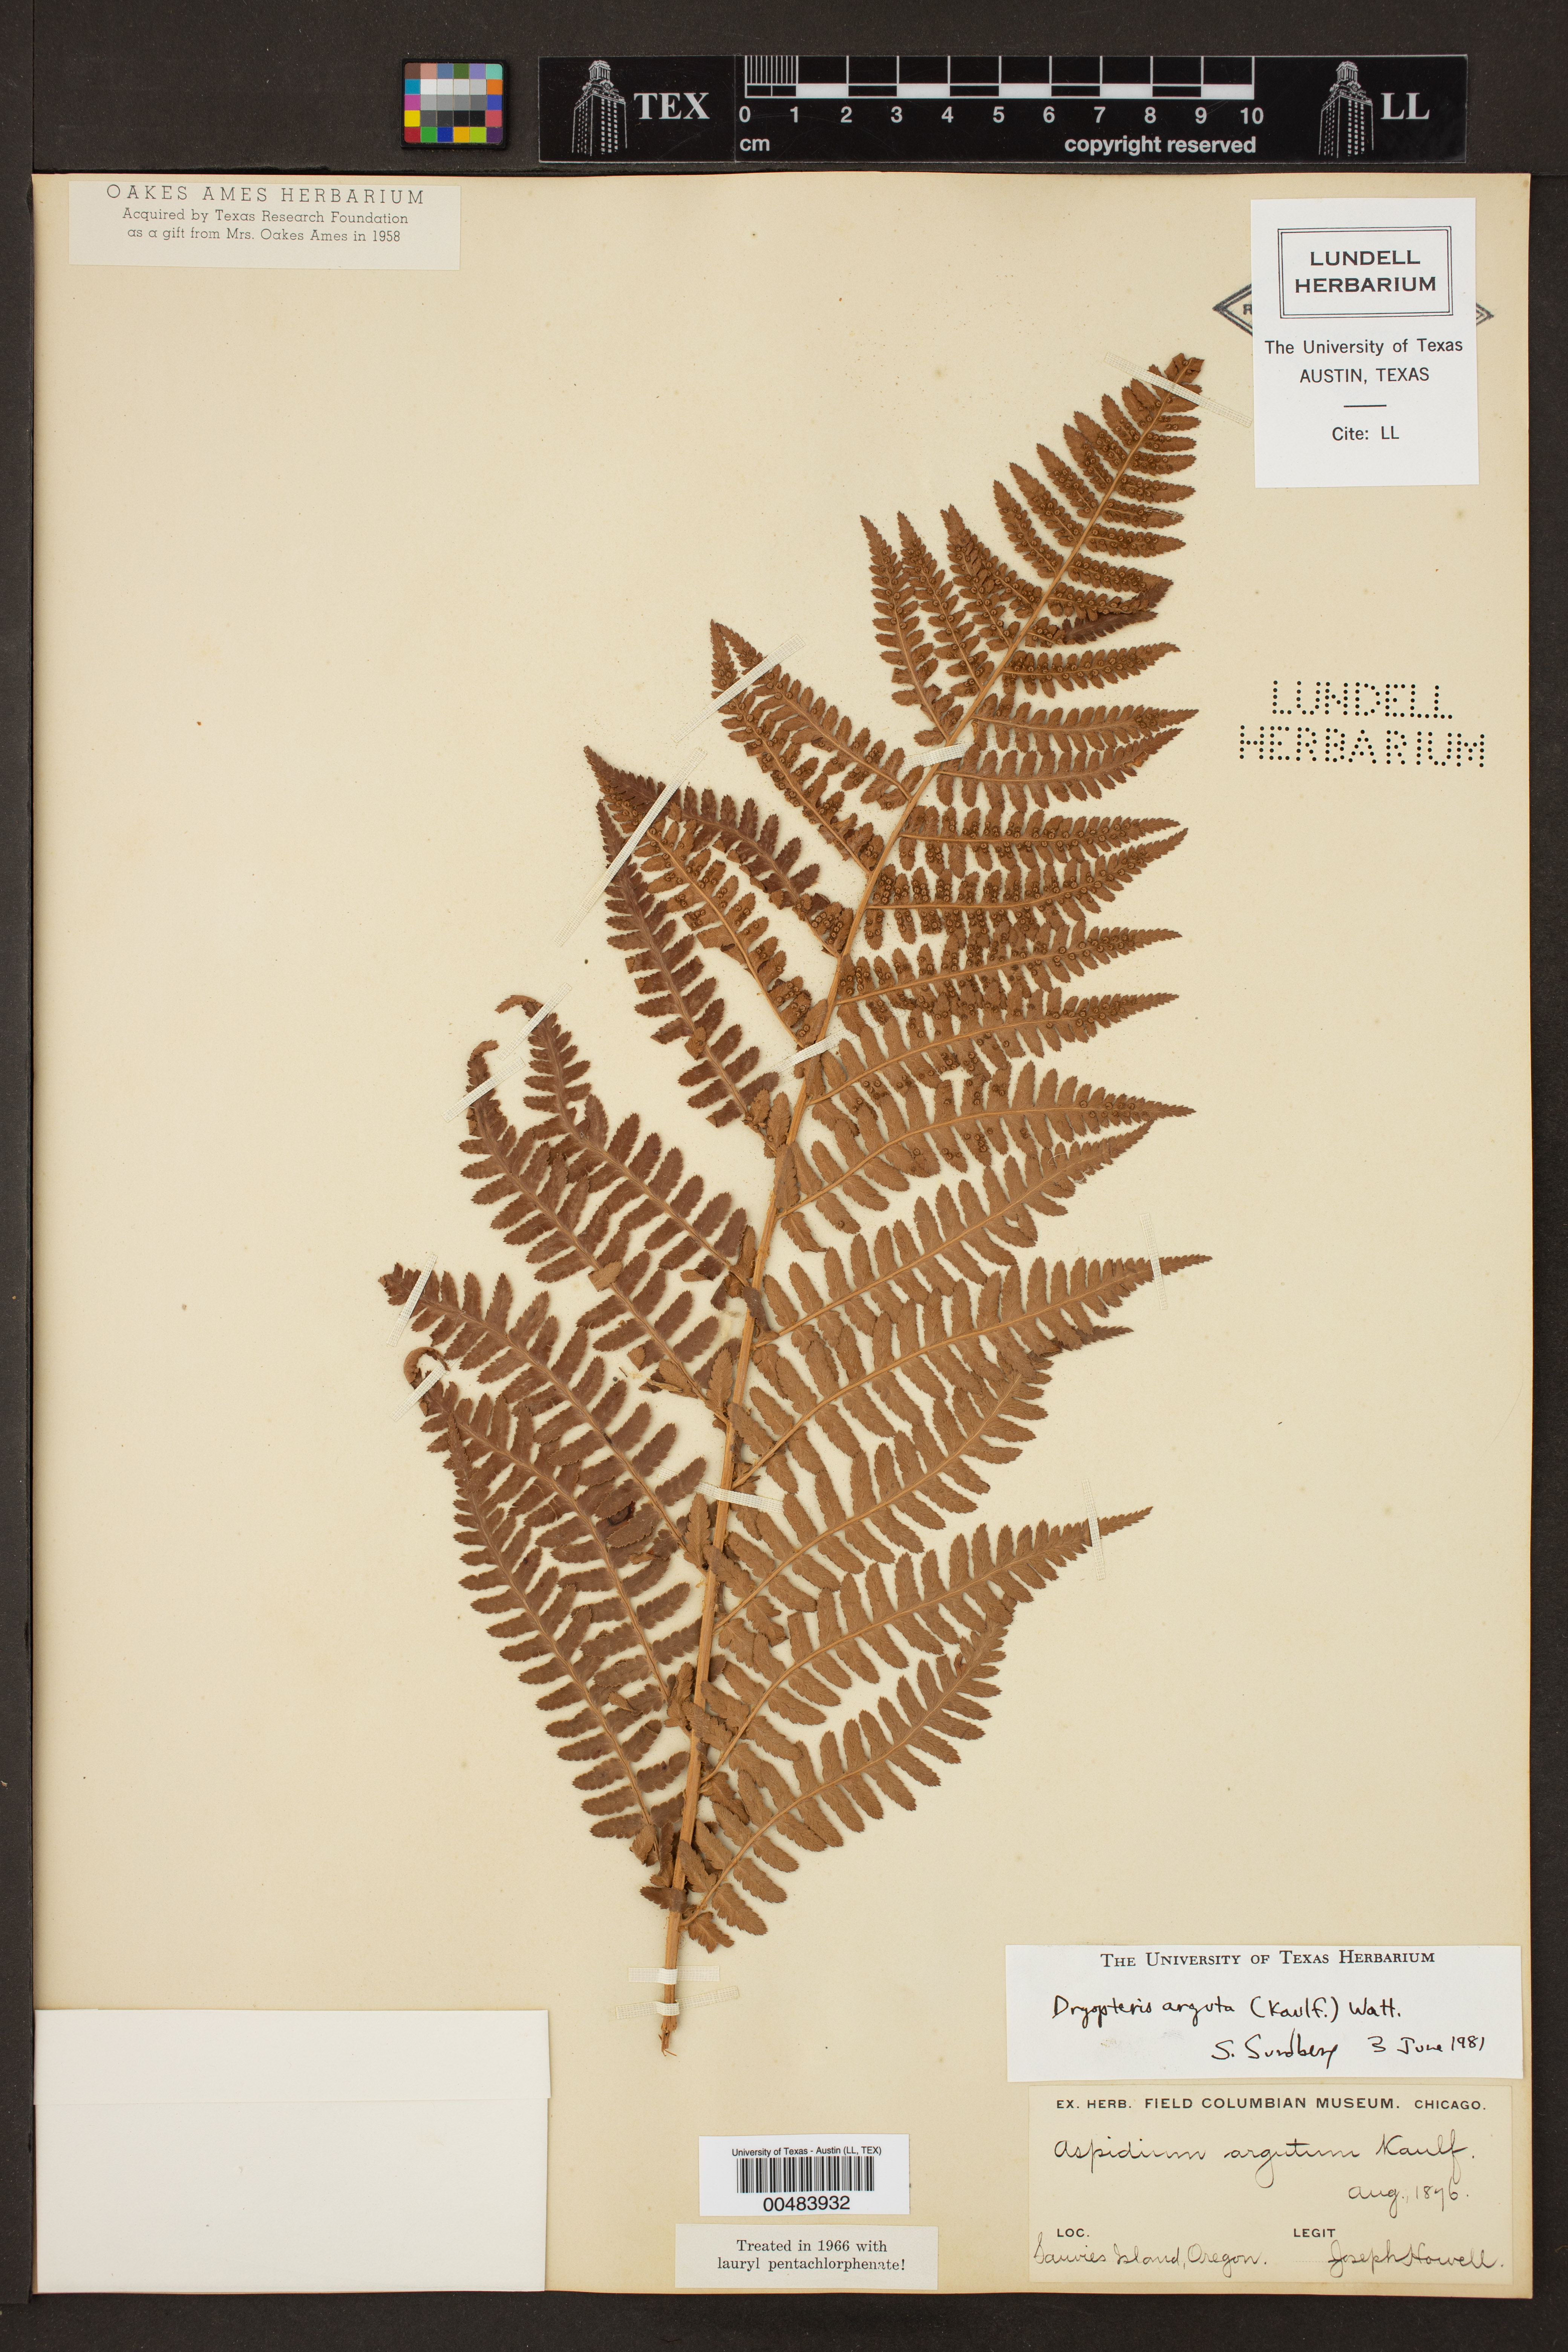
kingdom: Plantae
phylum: Tracheophyta
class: Polypodiopsida
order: Polypodiales
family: Dryopteridaceae
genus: Dryopteris
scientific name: Dryopteris arguta
